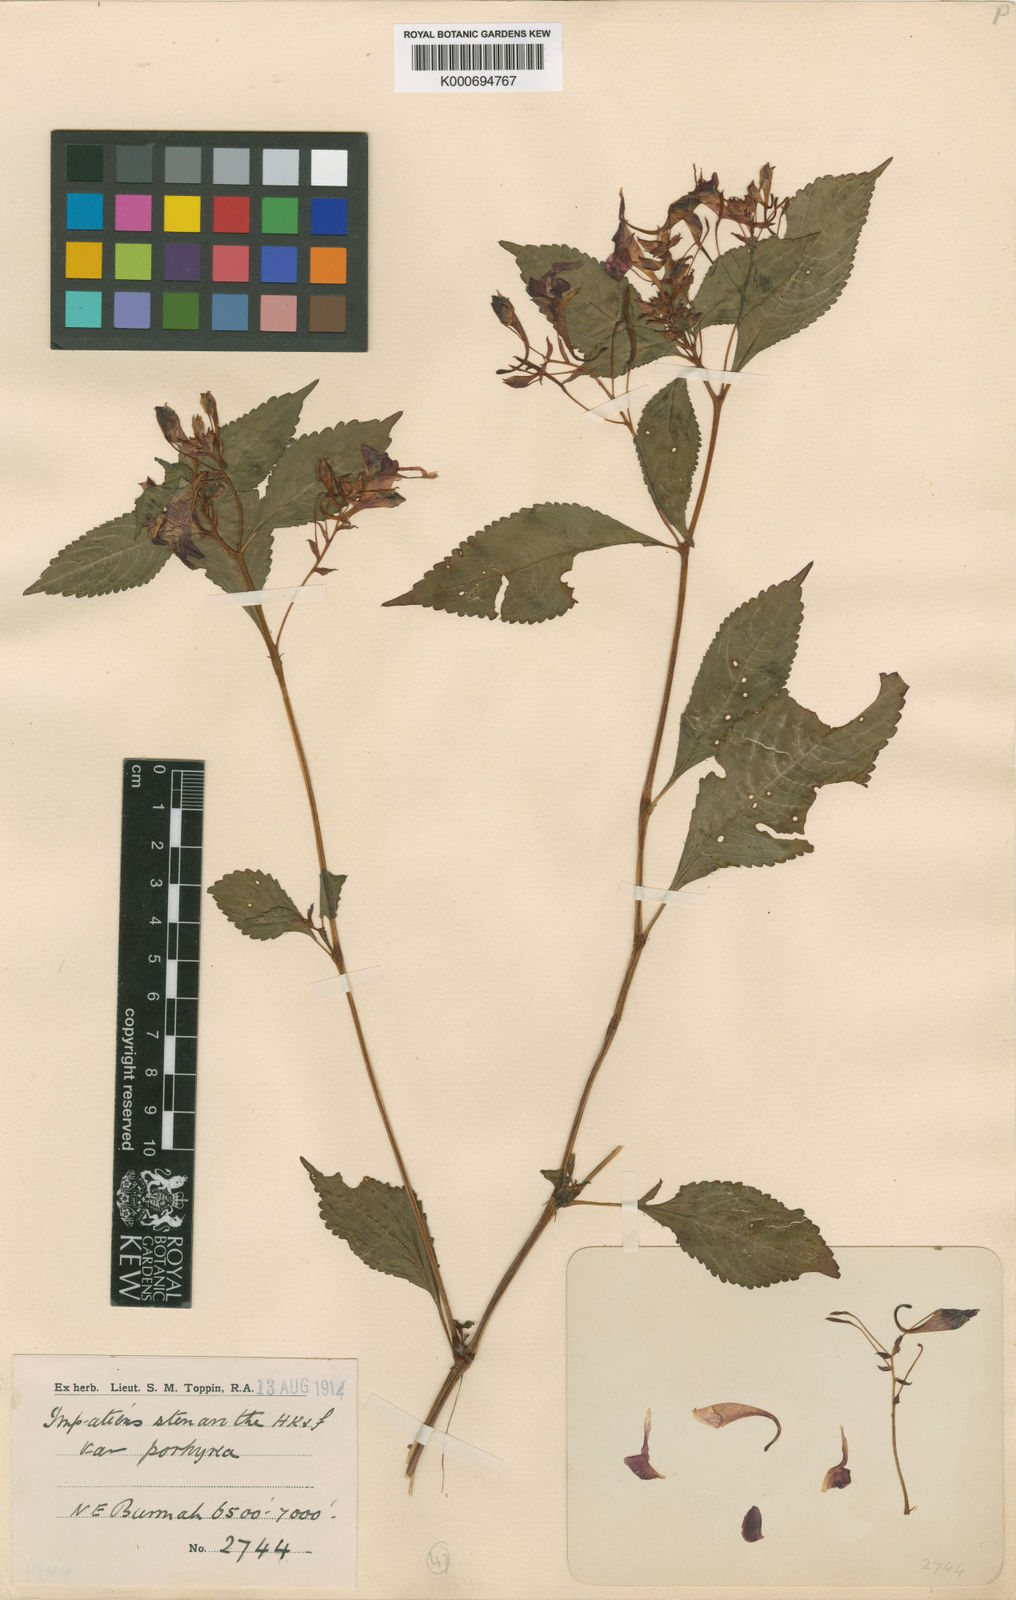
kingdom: Plantae
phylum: Tracheophyta
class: Magnoliopsida
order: Ericales
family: Balsaminaceae
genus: Impatiens
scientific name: Impatiens siculifera
